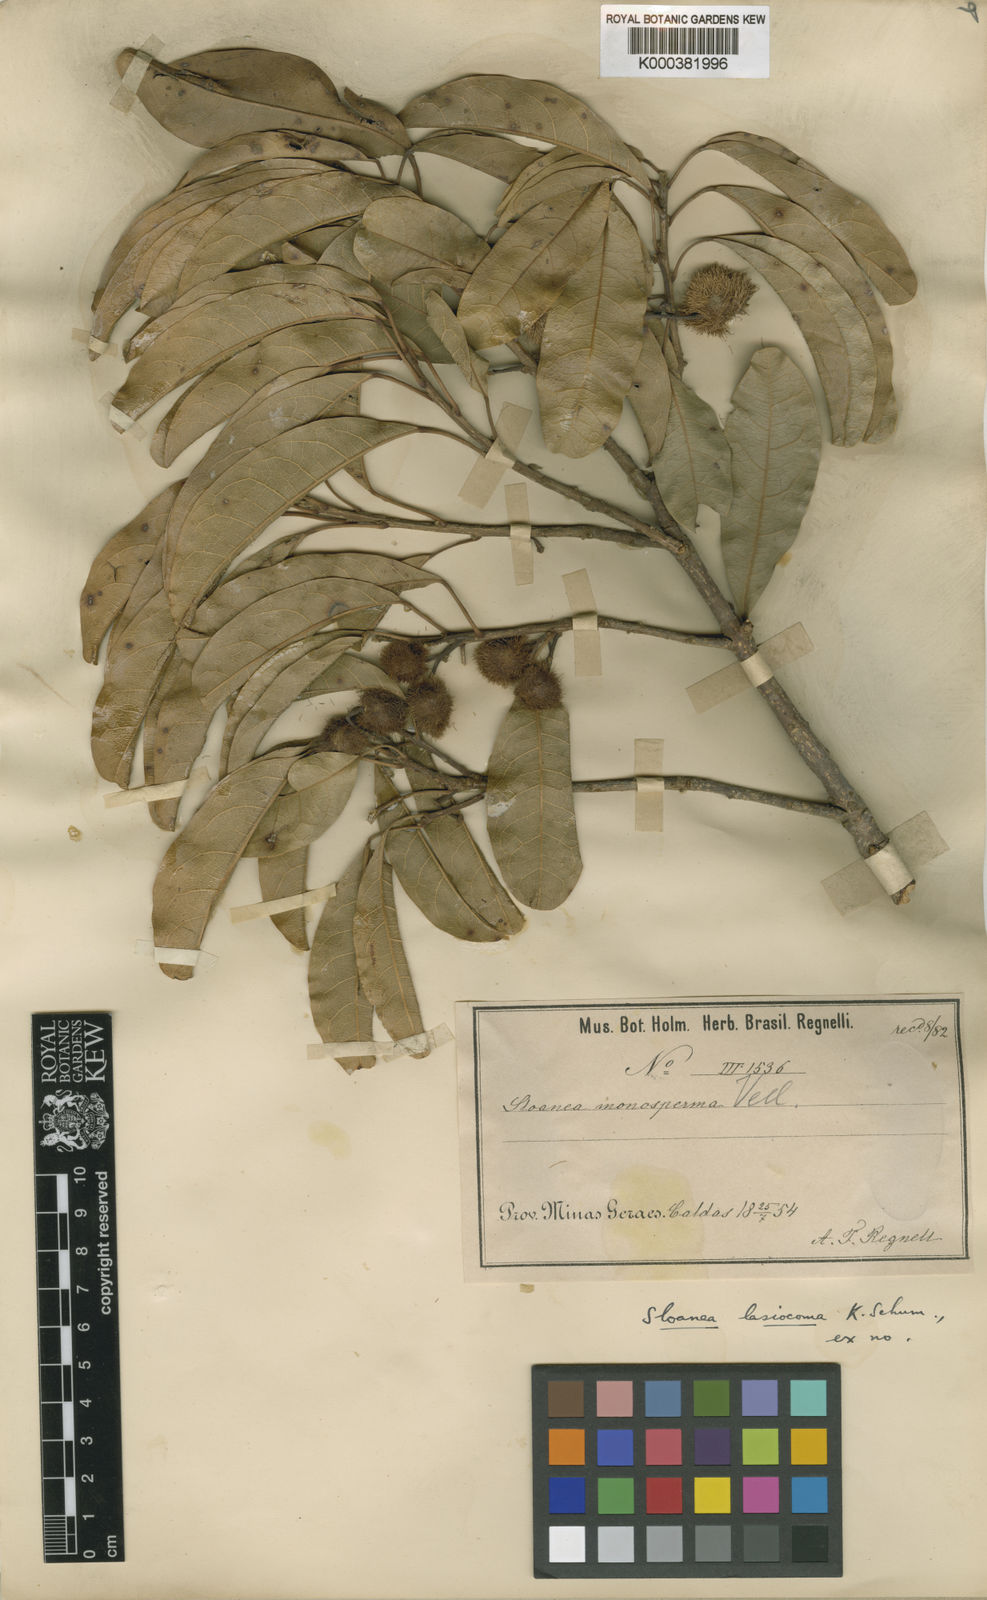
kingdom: Plantae
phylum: Tracheophyta
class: Magnoliopsida
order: Oxalidales
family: Elaeocarpaceae
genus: Sloanea
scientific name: Sloanea hirsuta
